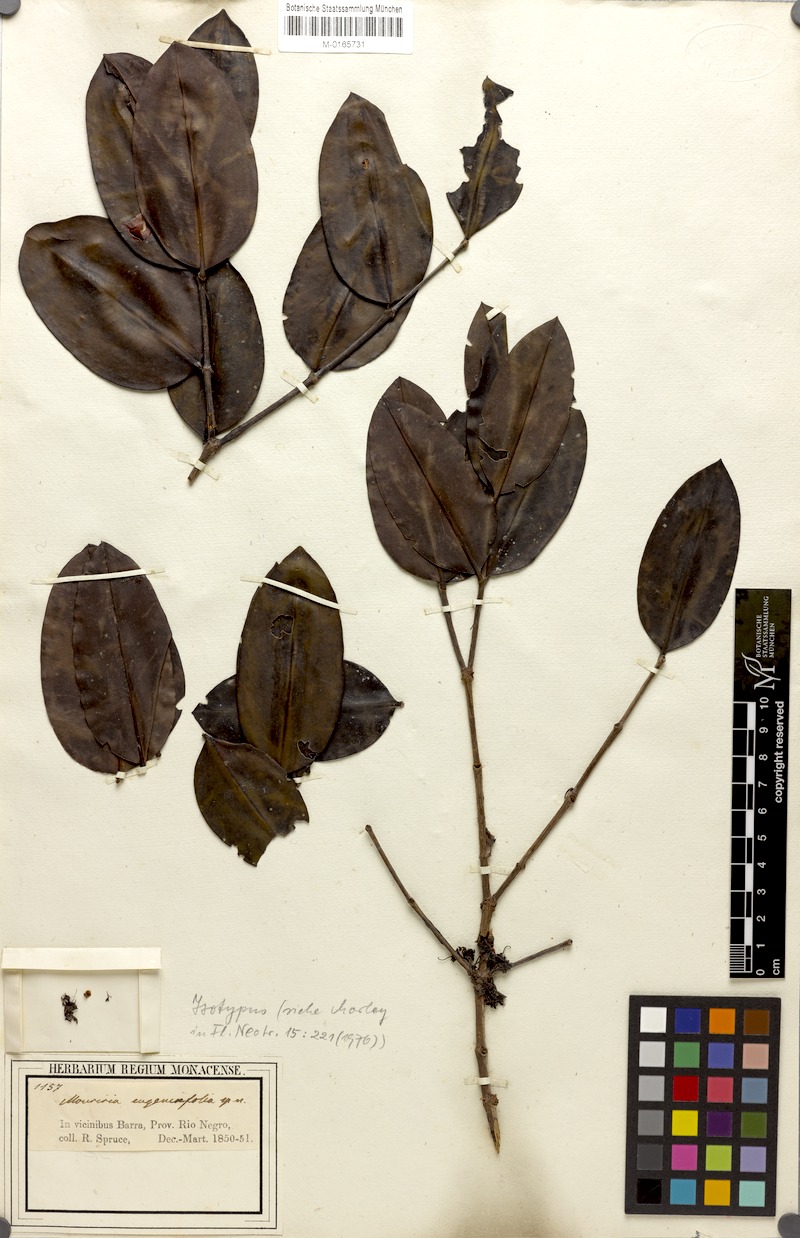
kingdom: Plantae
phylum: Tracheophyta
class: Magnoliopsida
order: Myrtales
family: Melastomataceae
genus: Mouriri
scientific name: Mouriri eugeniifolia
